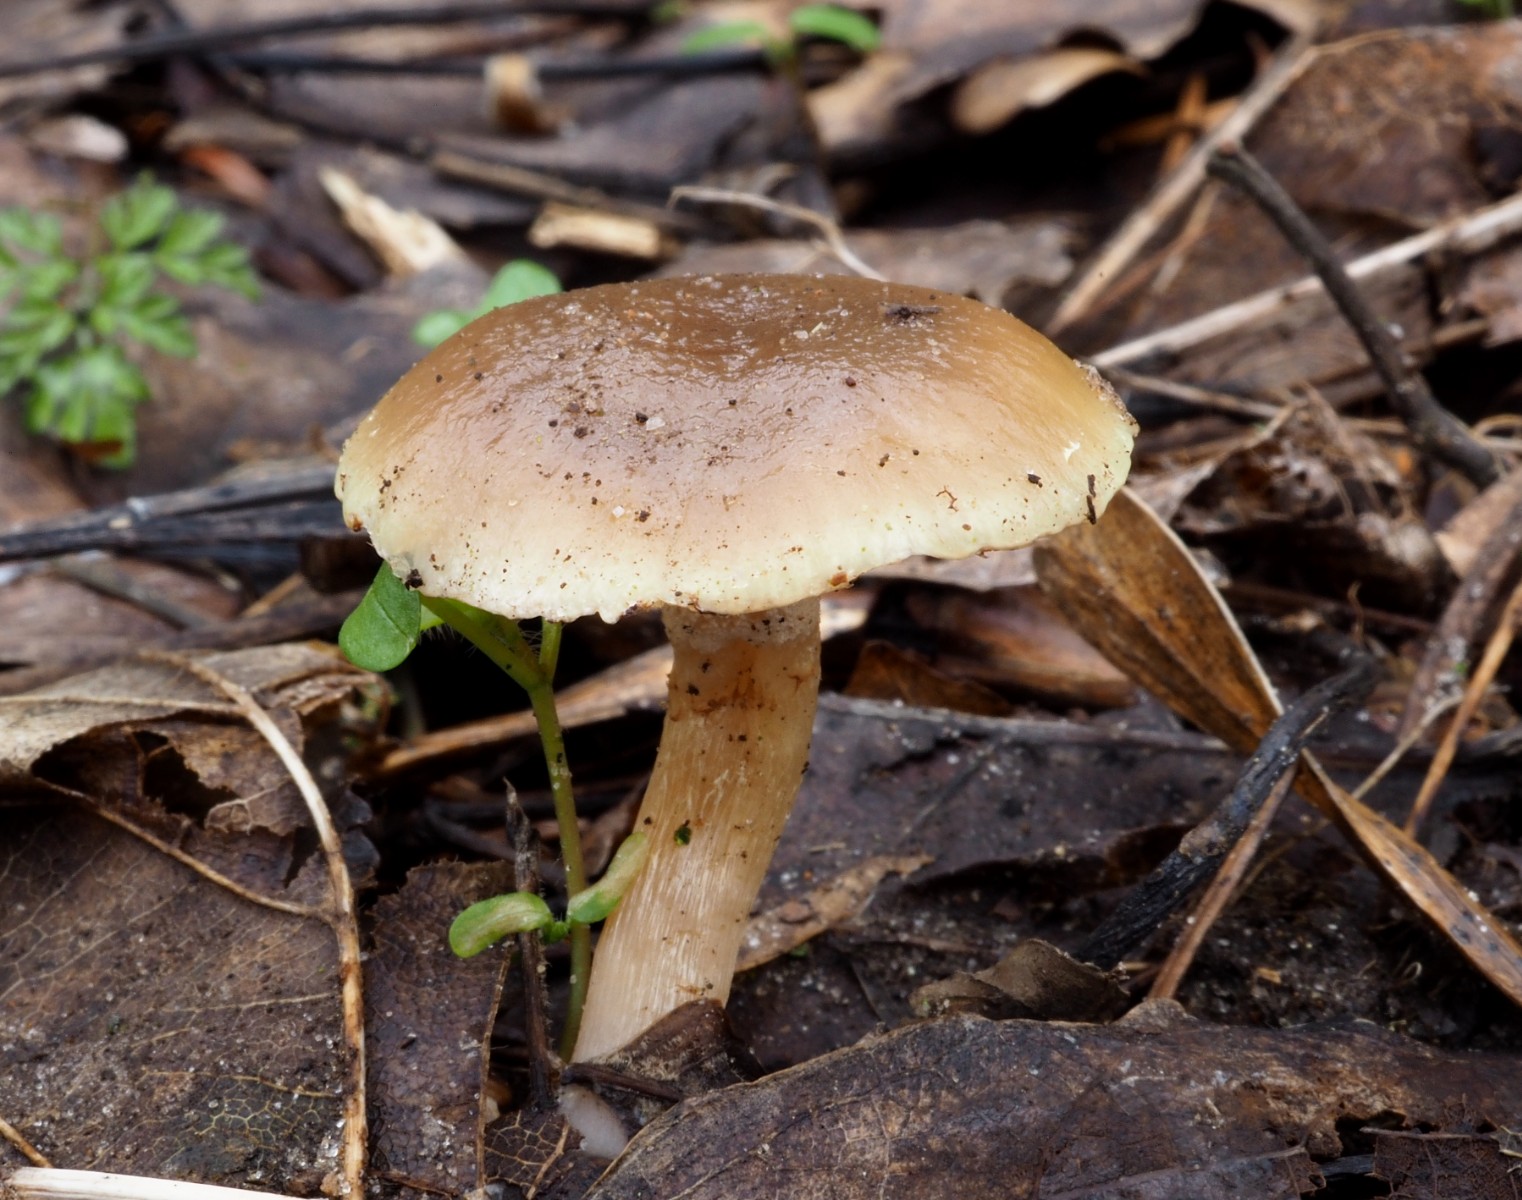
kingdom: Fungi
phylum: Basidiomycota
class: Agaricomycetes
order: Agaricales
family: Strophariaceae
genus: Meottomyces
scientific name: Meottomyces dissimulans
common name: smudsigbrun vinterskælhat
